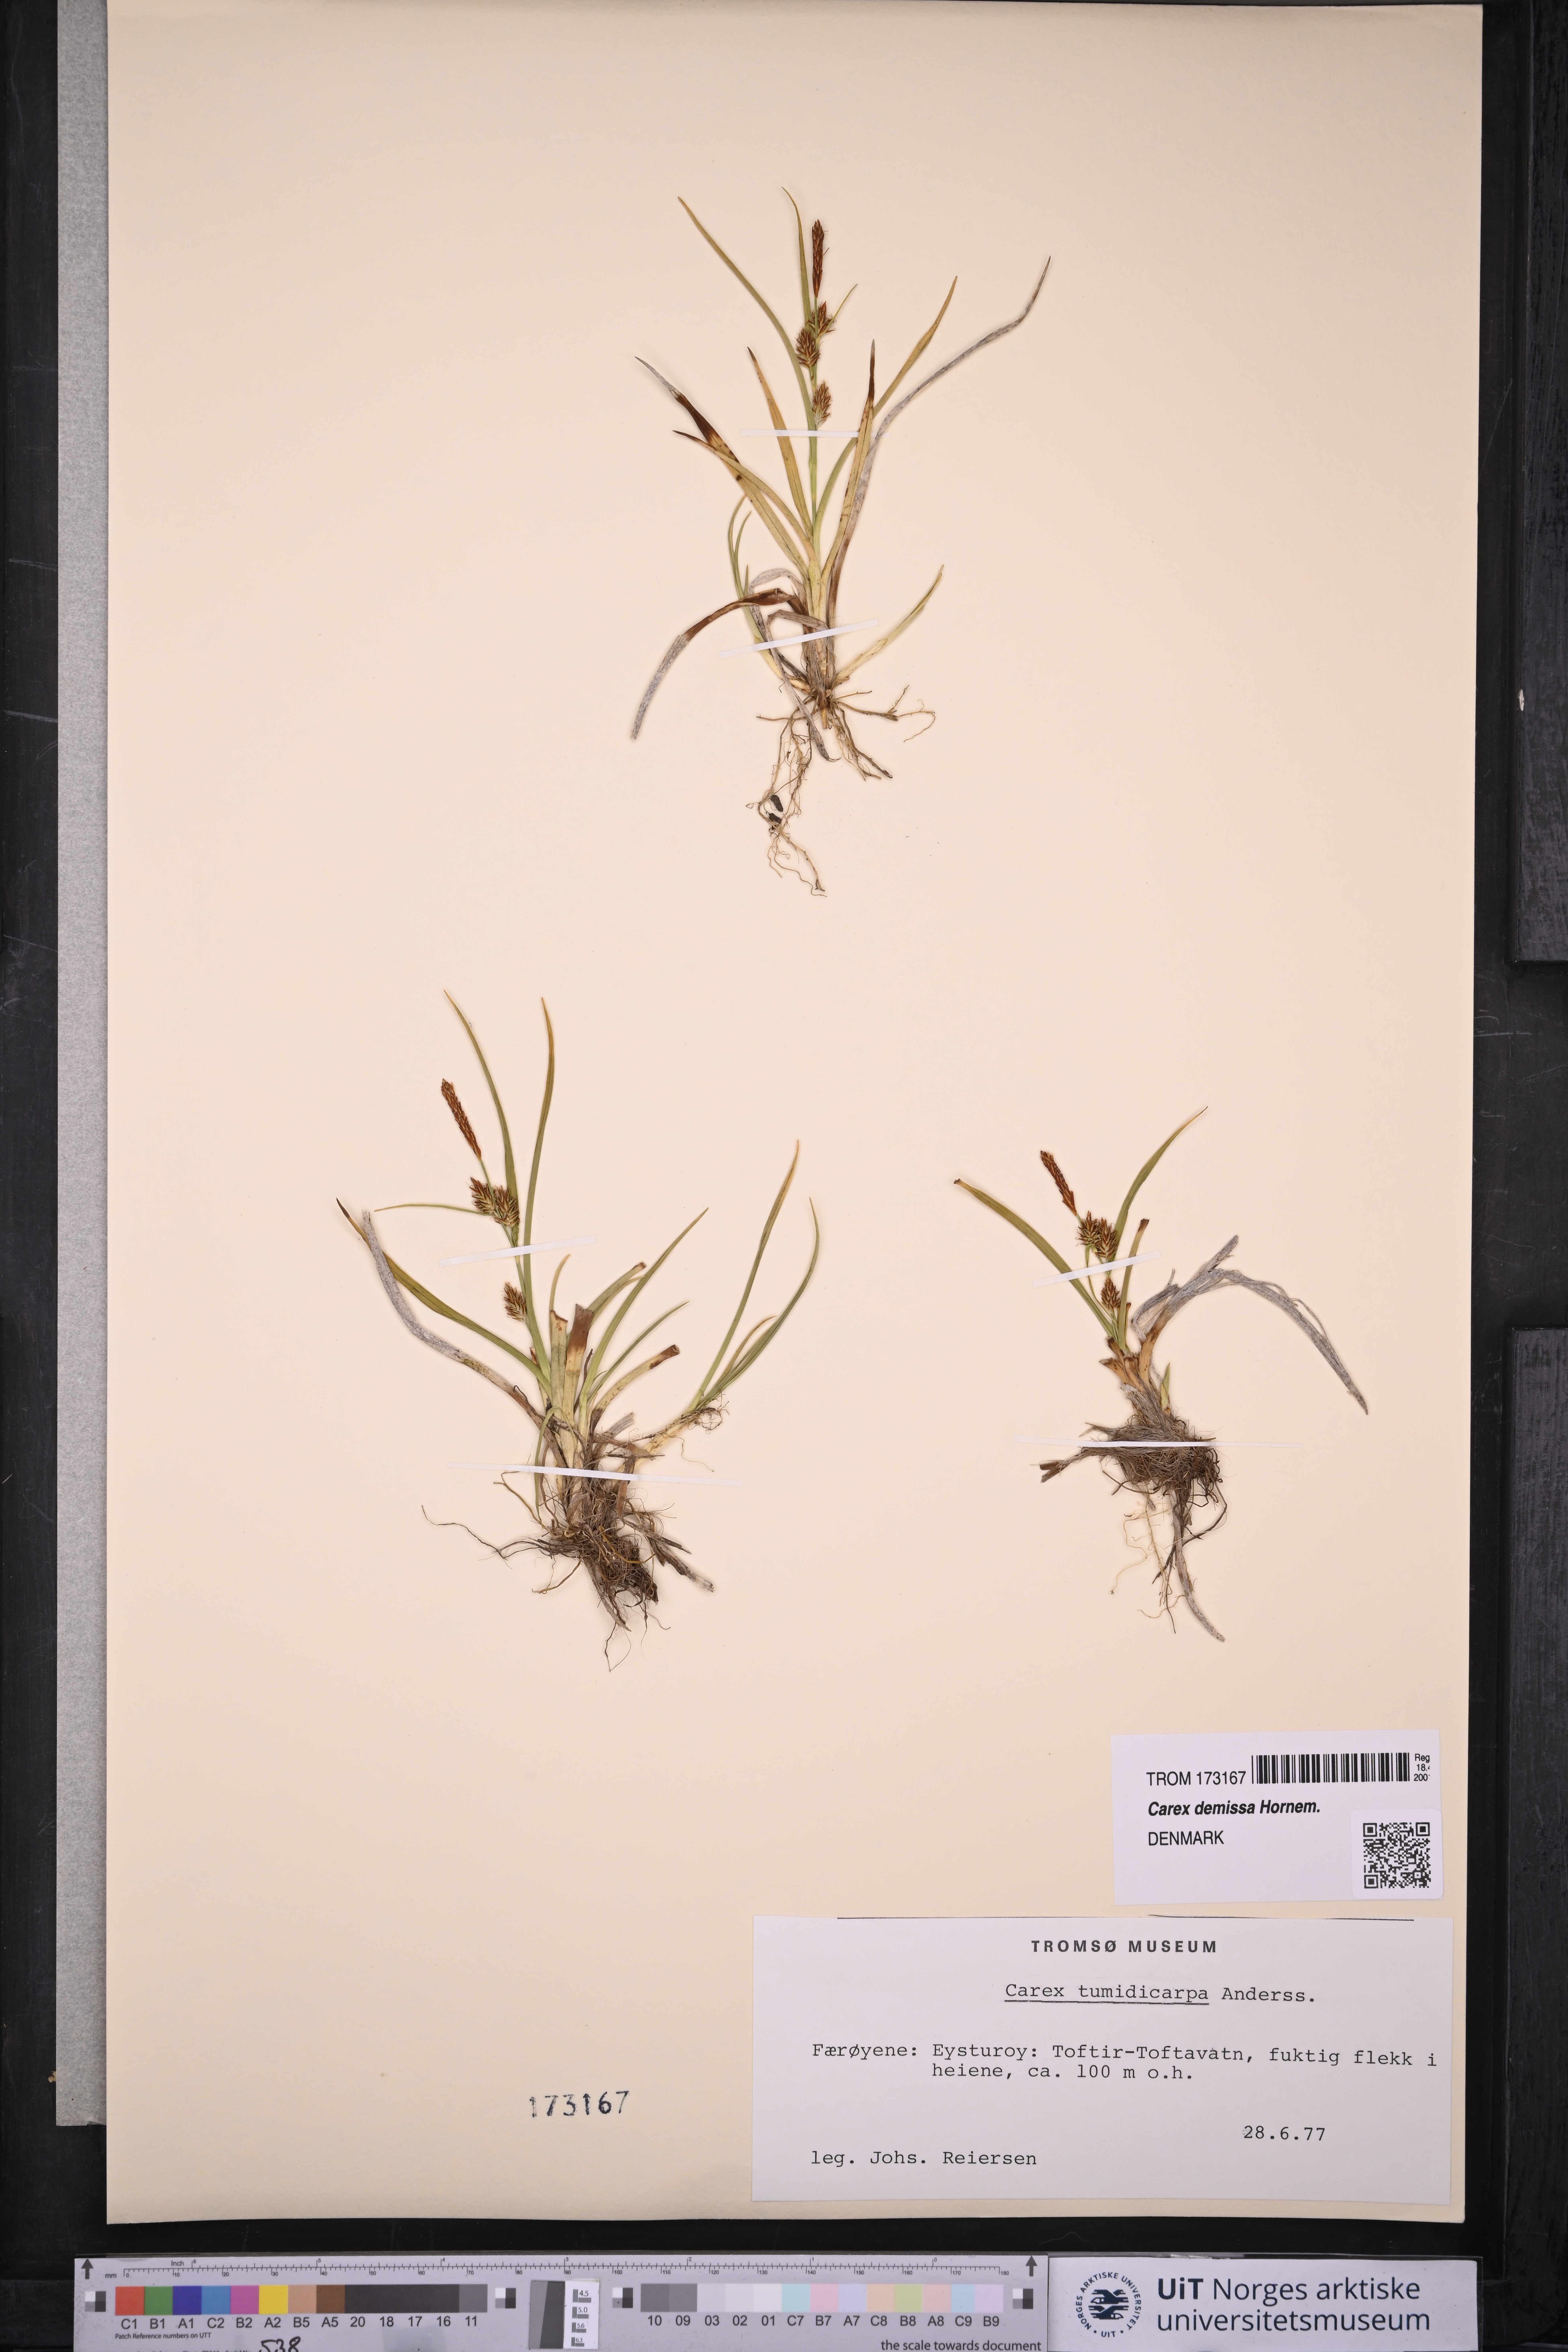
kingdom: Plantae
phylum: Tracheophyta
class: Liliopsida
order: Poales
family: Cyperaceae
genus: Carex
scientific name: Carex demissa
